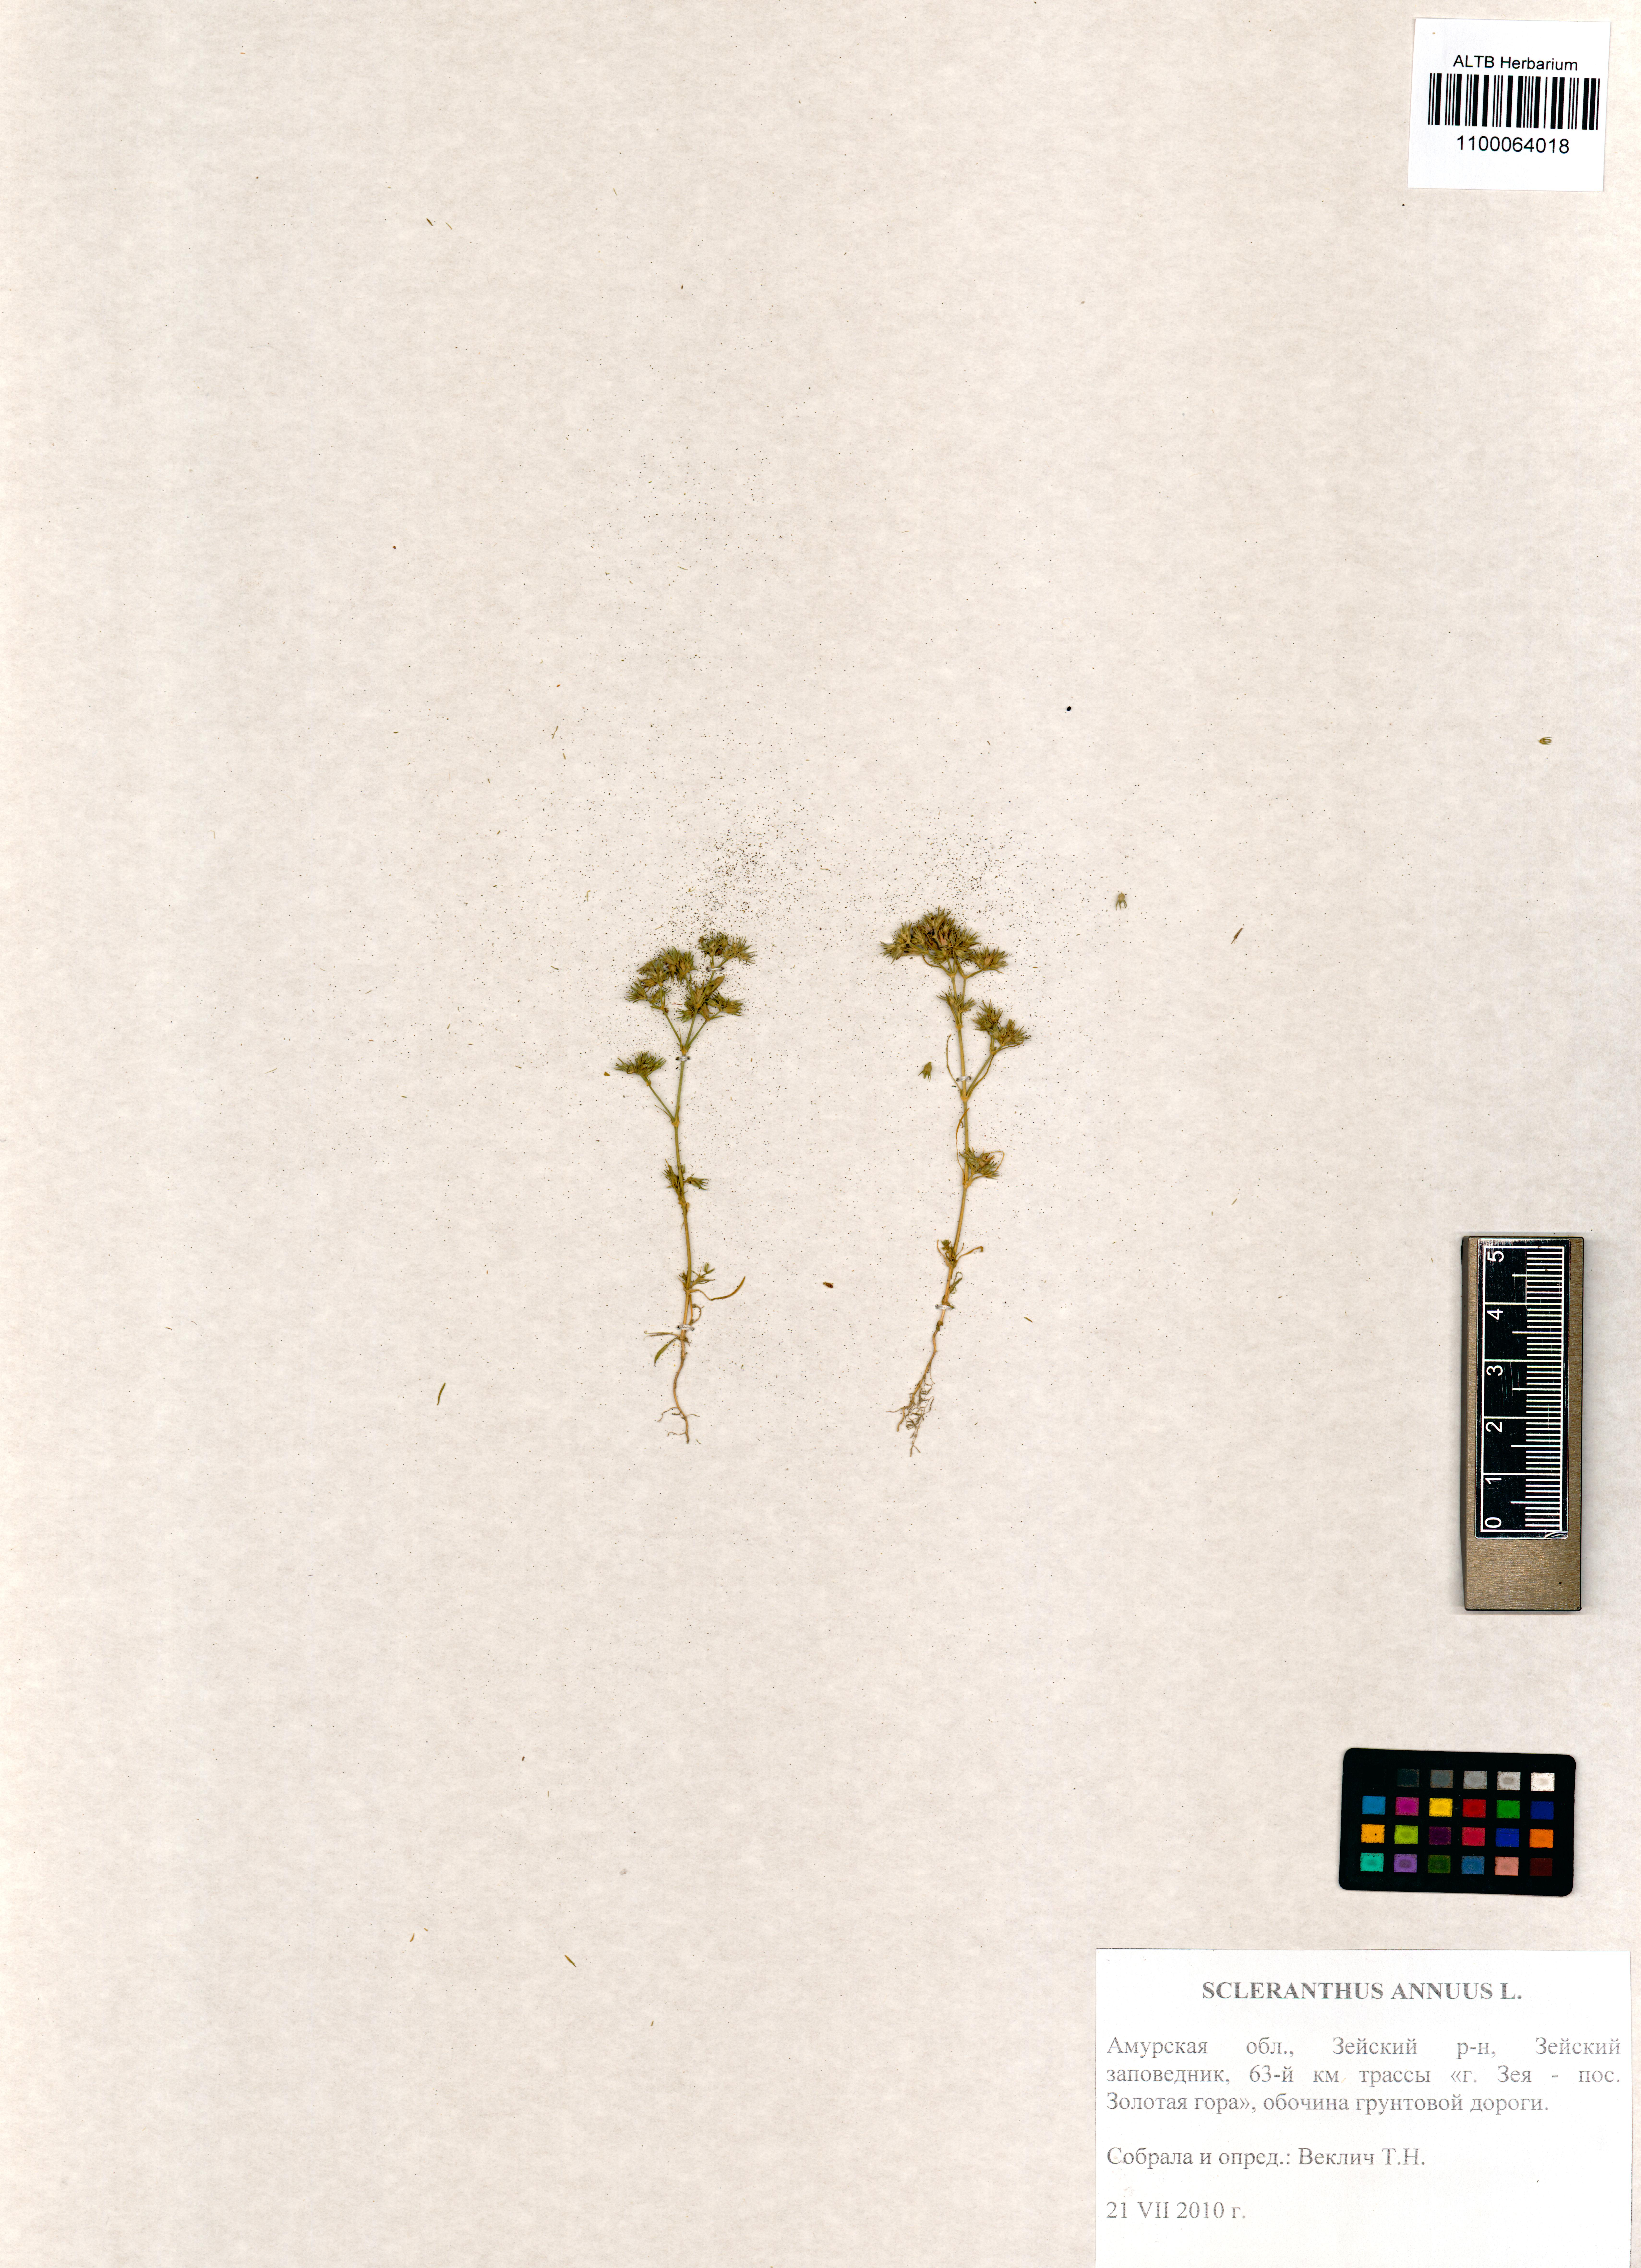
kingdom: Plantae
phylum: Tracheophyta
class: Magnoliopsida
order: Caryophyllales
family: Caryophyllaceae
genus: Scleranthus
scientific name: Scleranthus annuus
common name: Annual knawel
